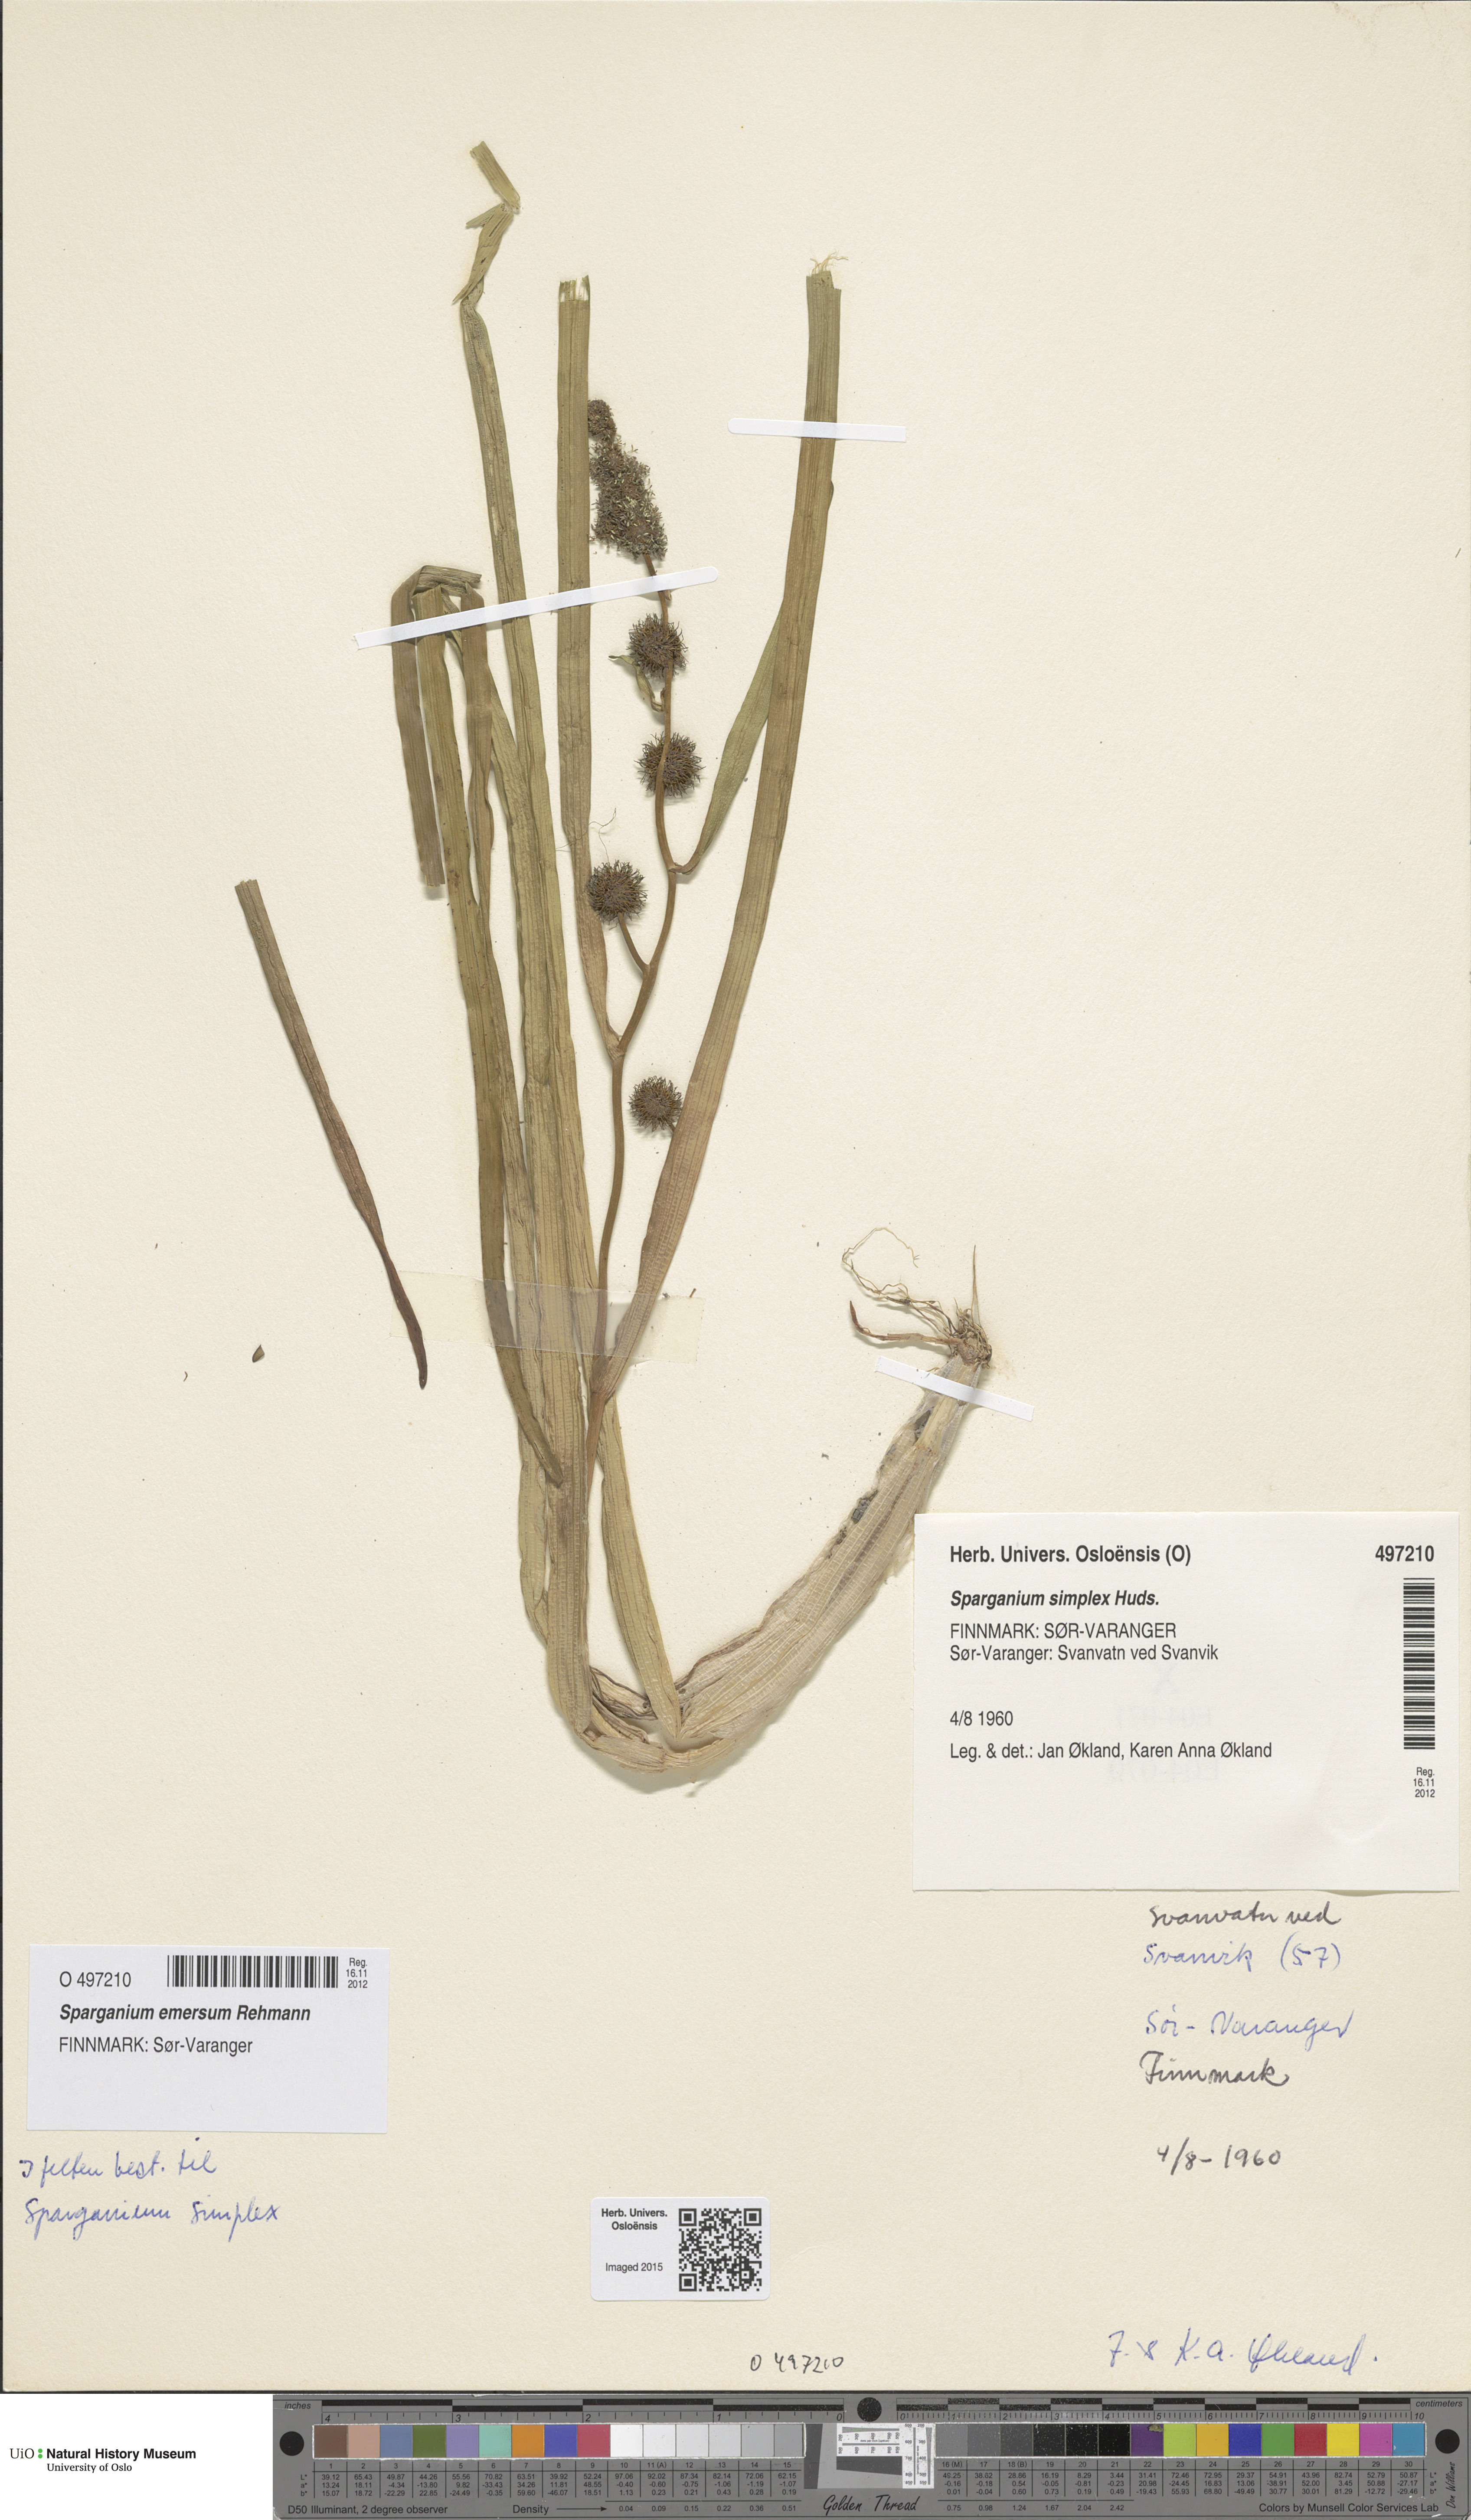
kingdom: Plantae
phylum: Tracheophyta
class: Liliopsida
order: Poales
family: Typhaceae
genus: Sparganium
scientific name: Sparganium emersum
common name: Unbranched bur-reed
